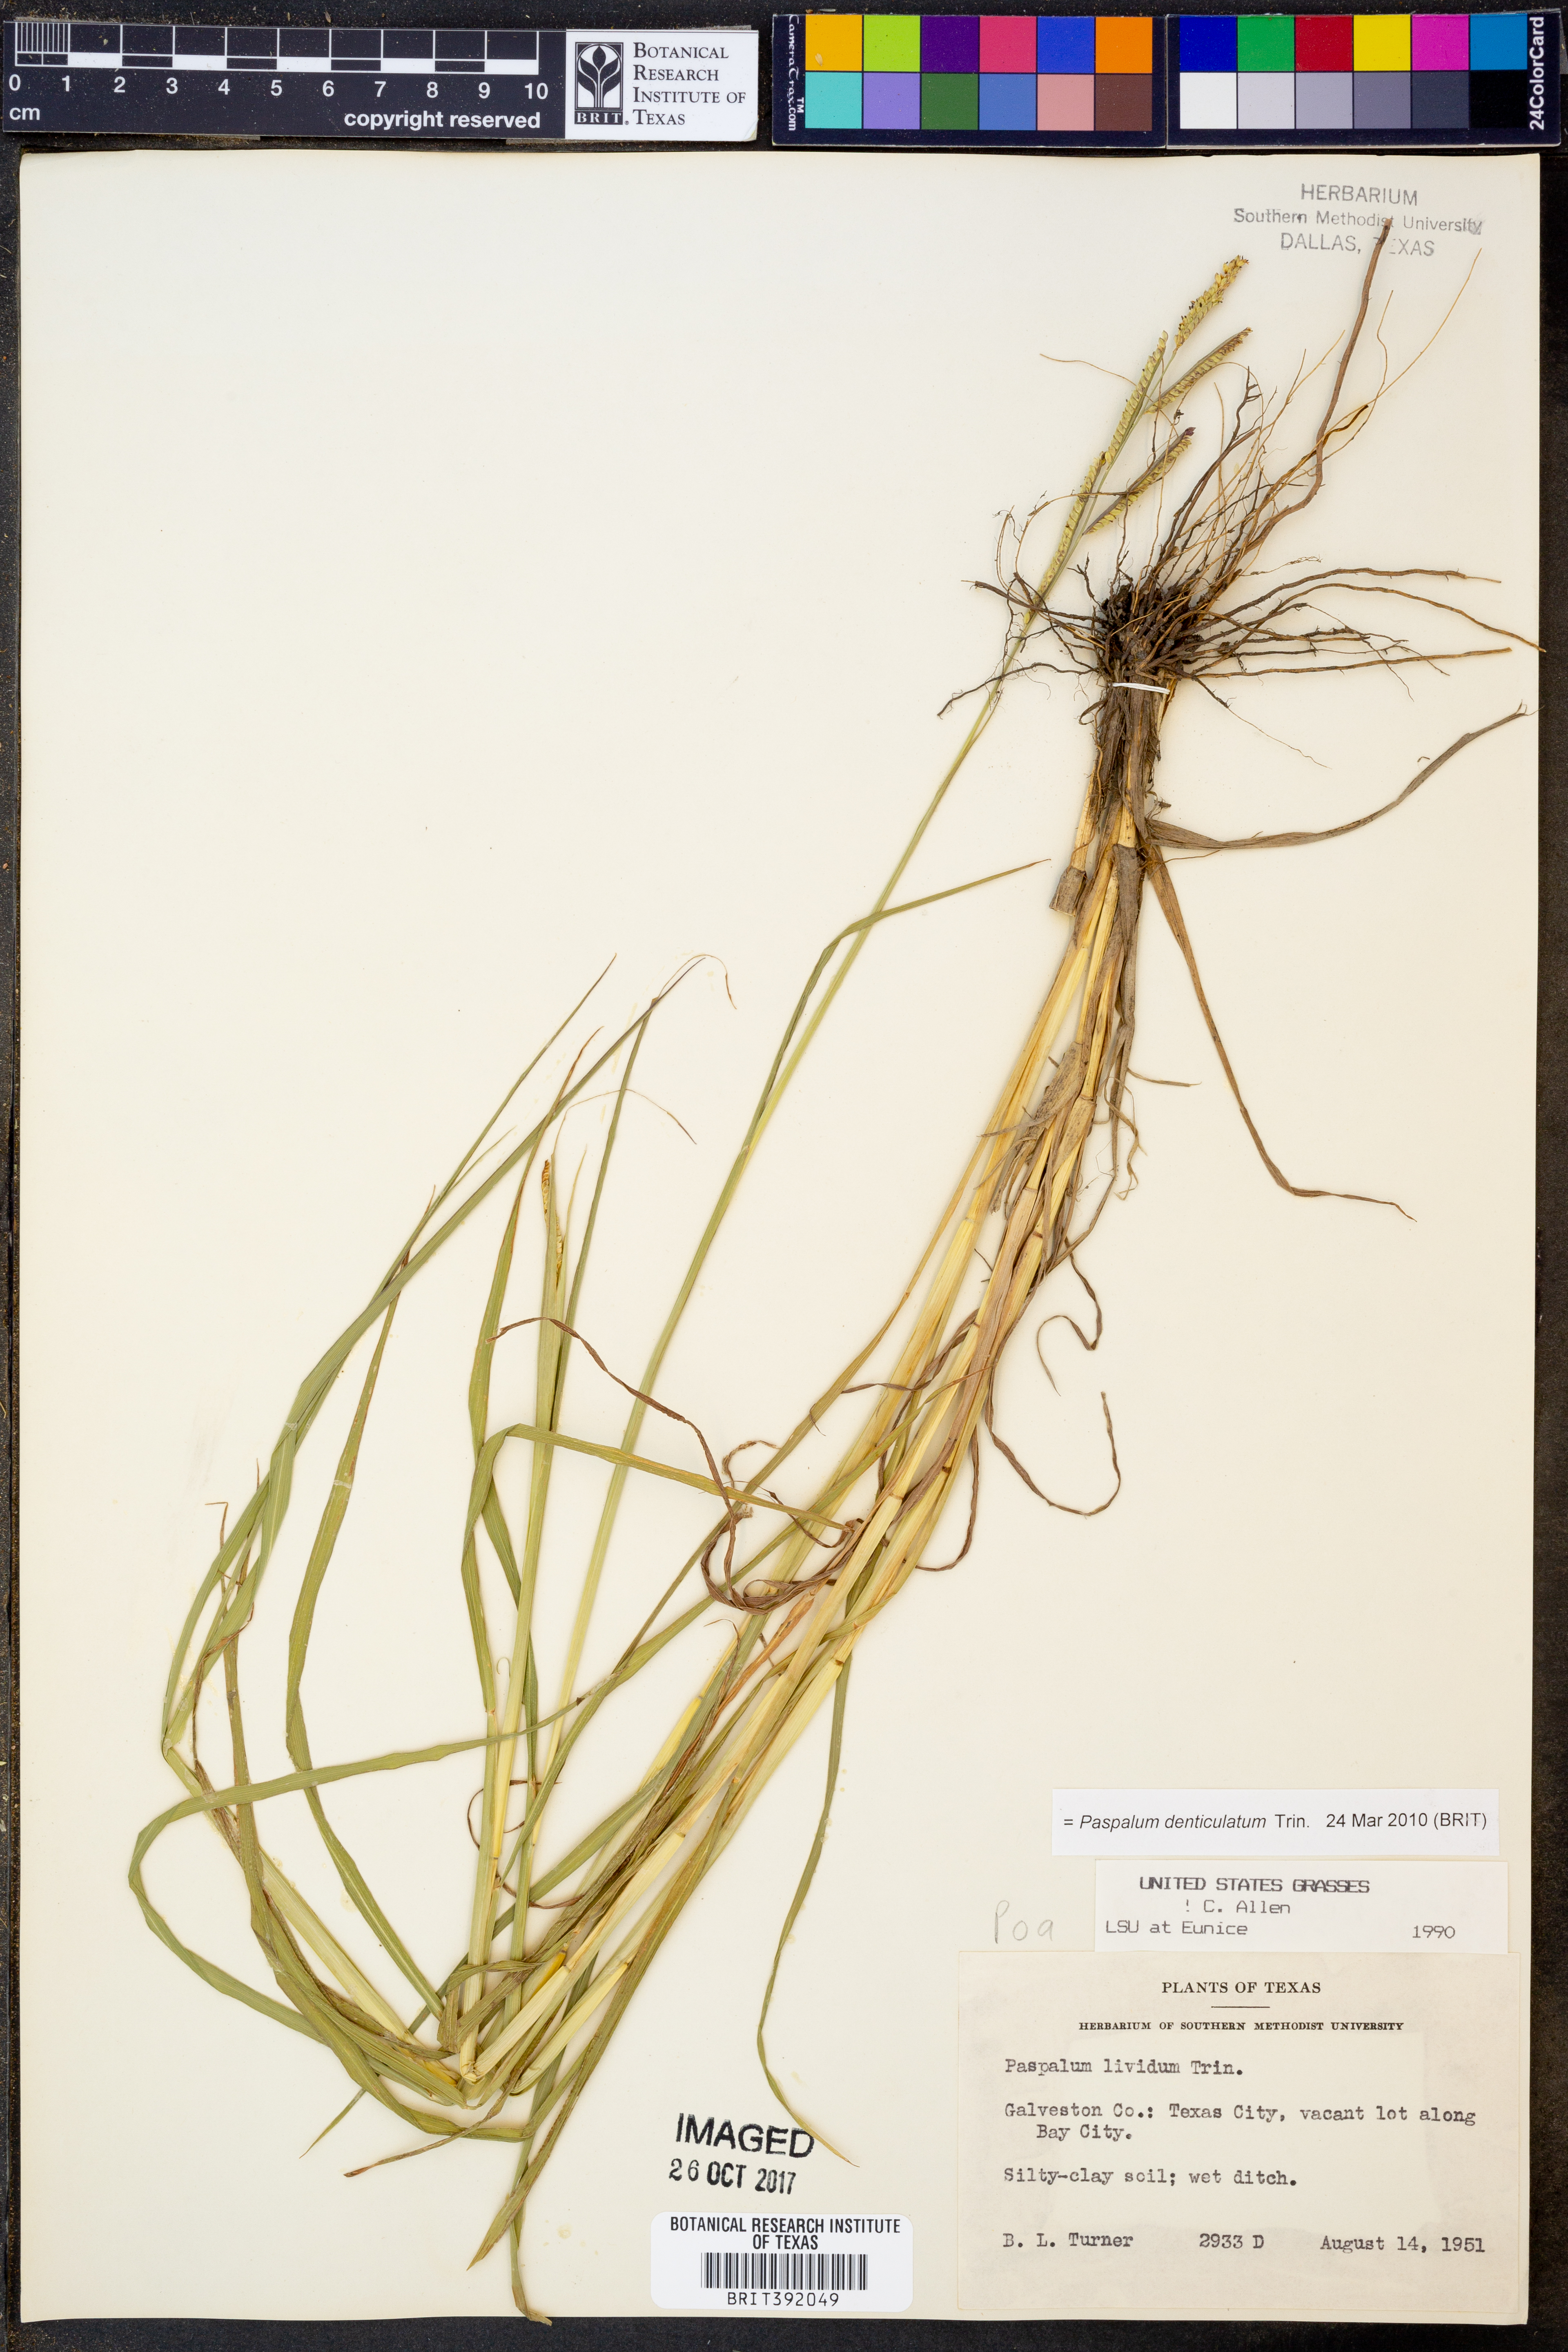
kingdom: Plantae
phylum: Tracheophyta
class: Liliopsida
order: Poales
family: Poaceae
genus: Paspalum
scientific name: Paspalum denticulatum
